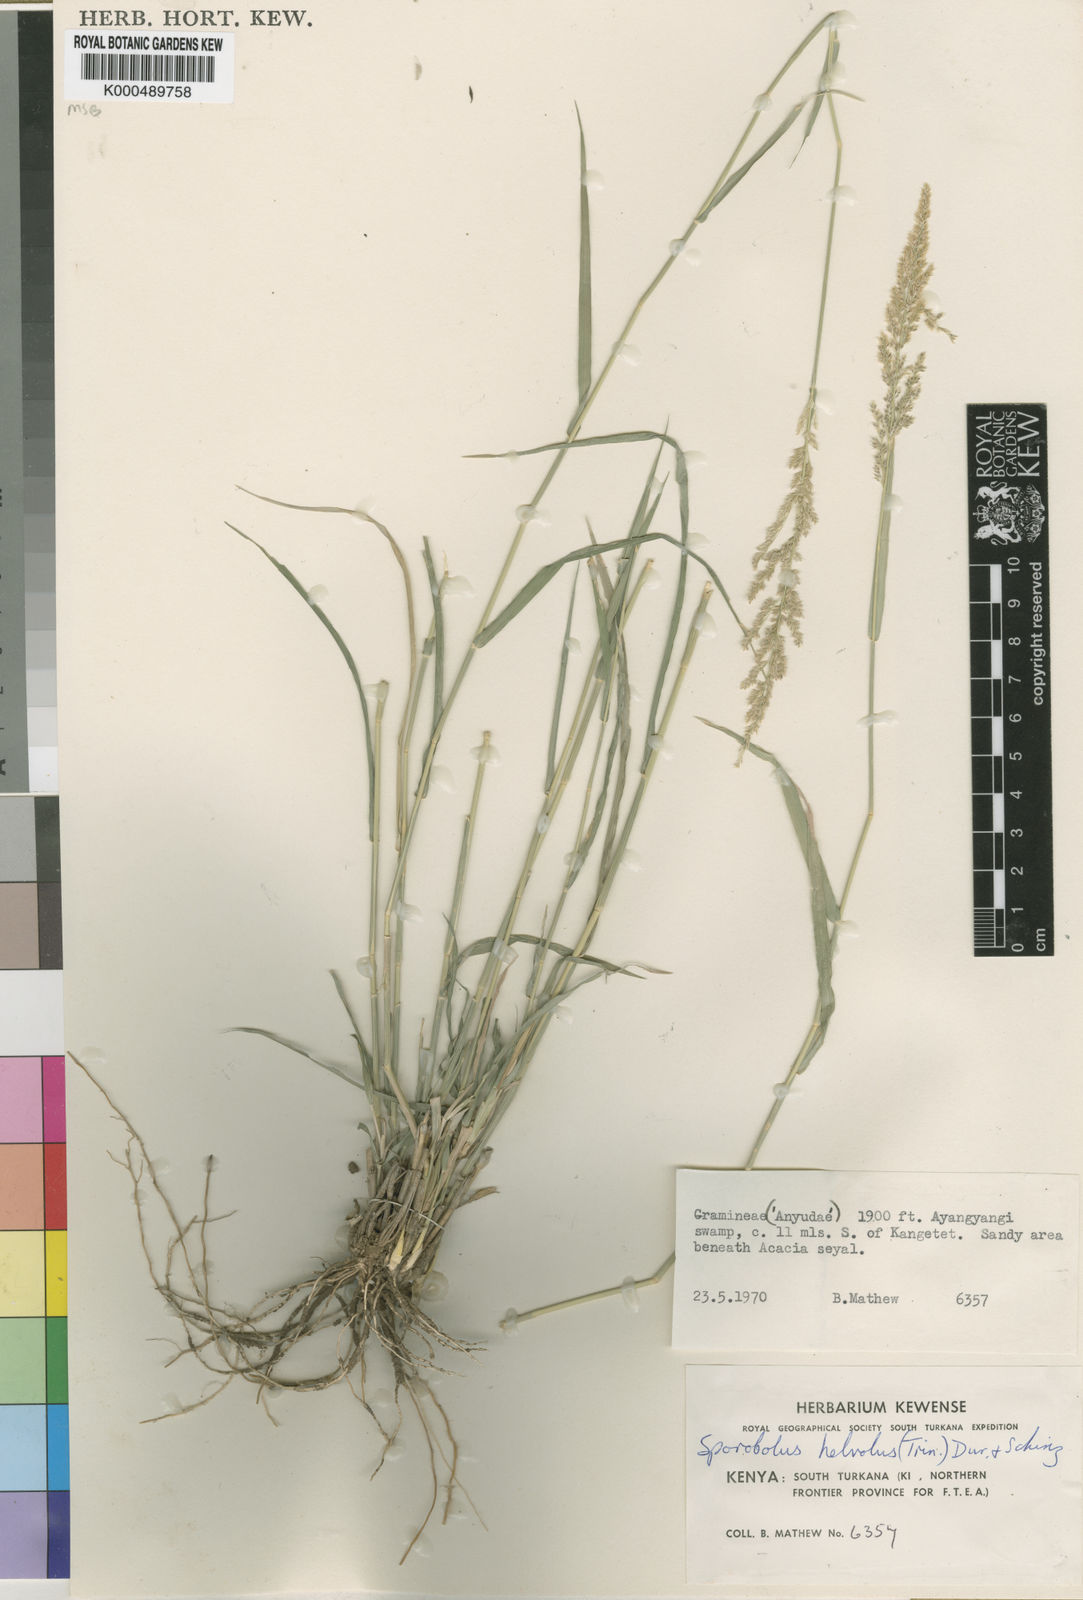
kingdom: Plantae
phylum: Tracheophyta
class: Liliopsida
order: Poales
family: Poaceae
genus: Sporobolus
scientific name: Sporobolus helvolus
